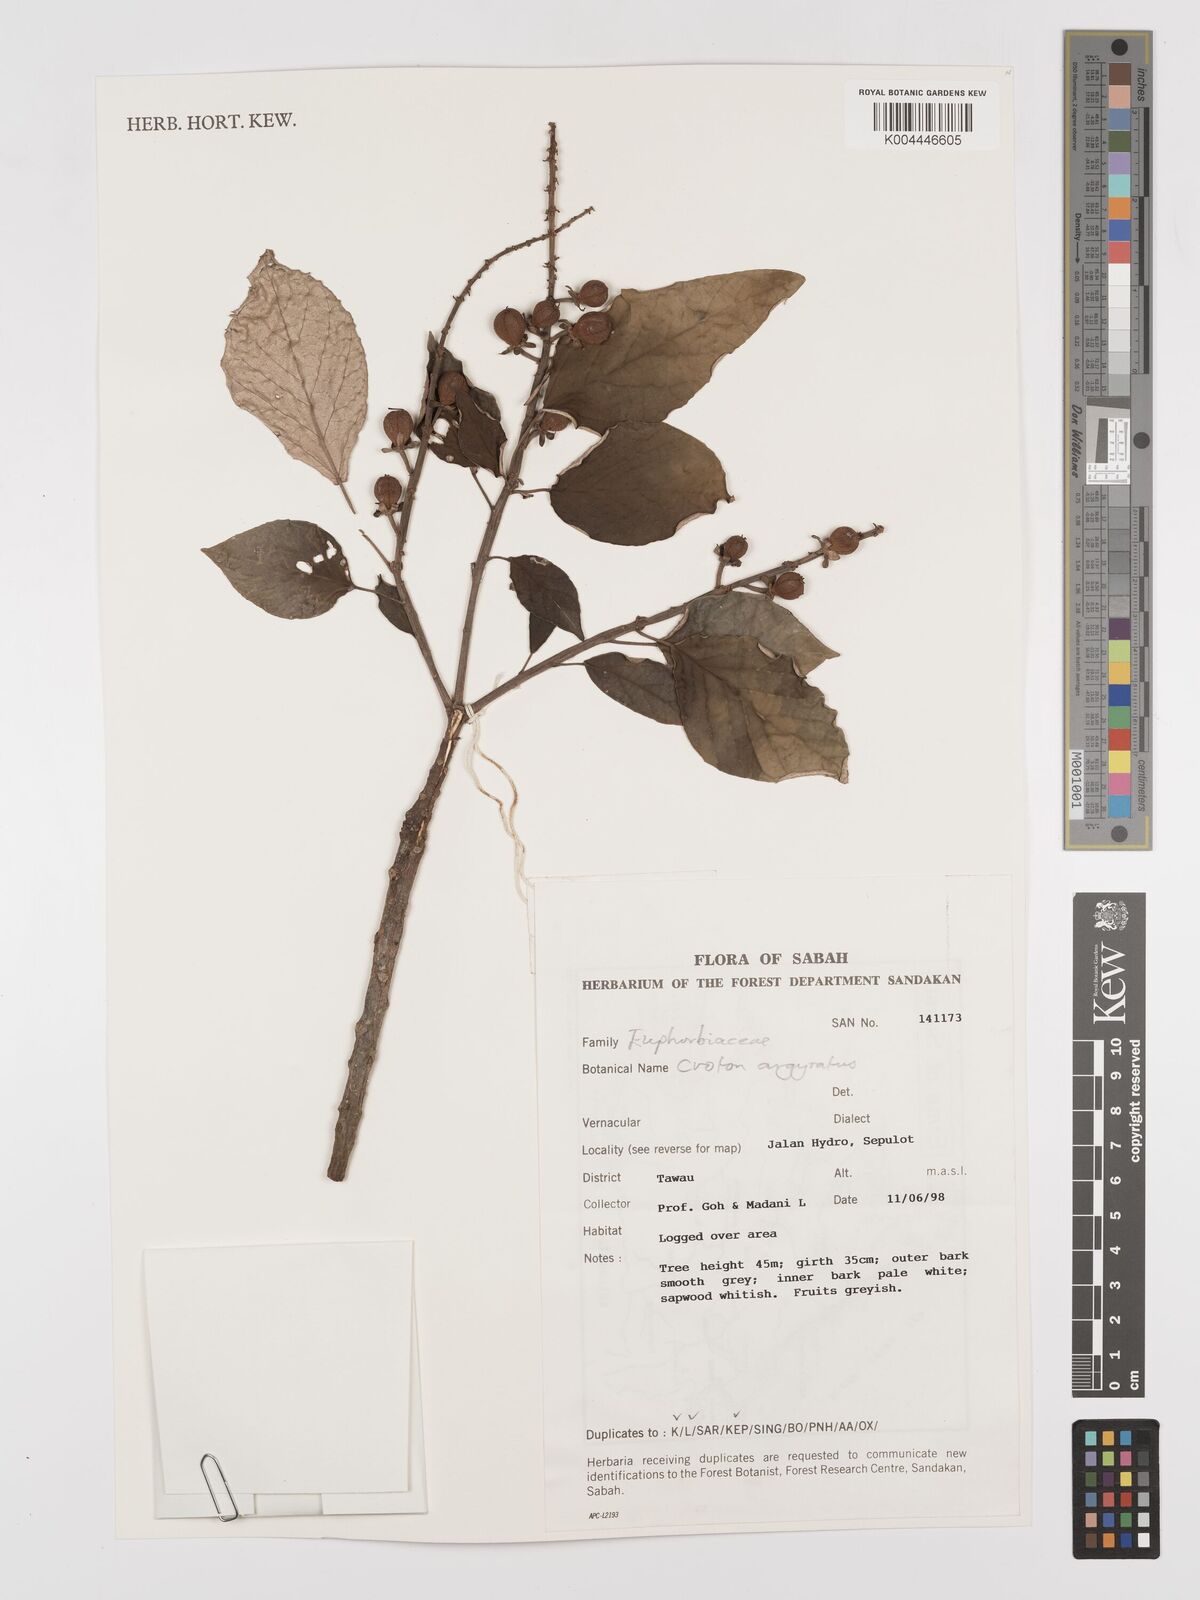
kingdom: Plantae
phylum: Tracheophyta
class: Magnoliopsida
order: Malpighiales
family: Euphorbiaceae
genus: Croton
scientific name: Croton argyratus
